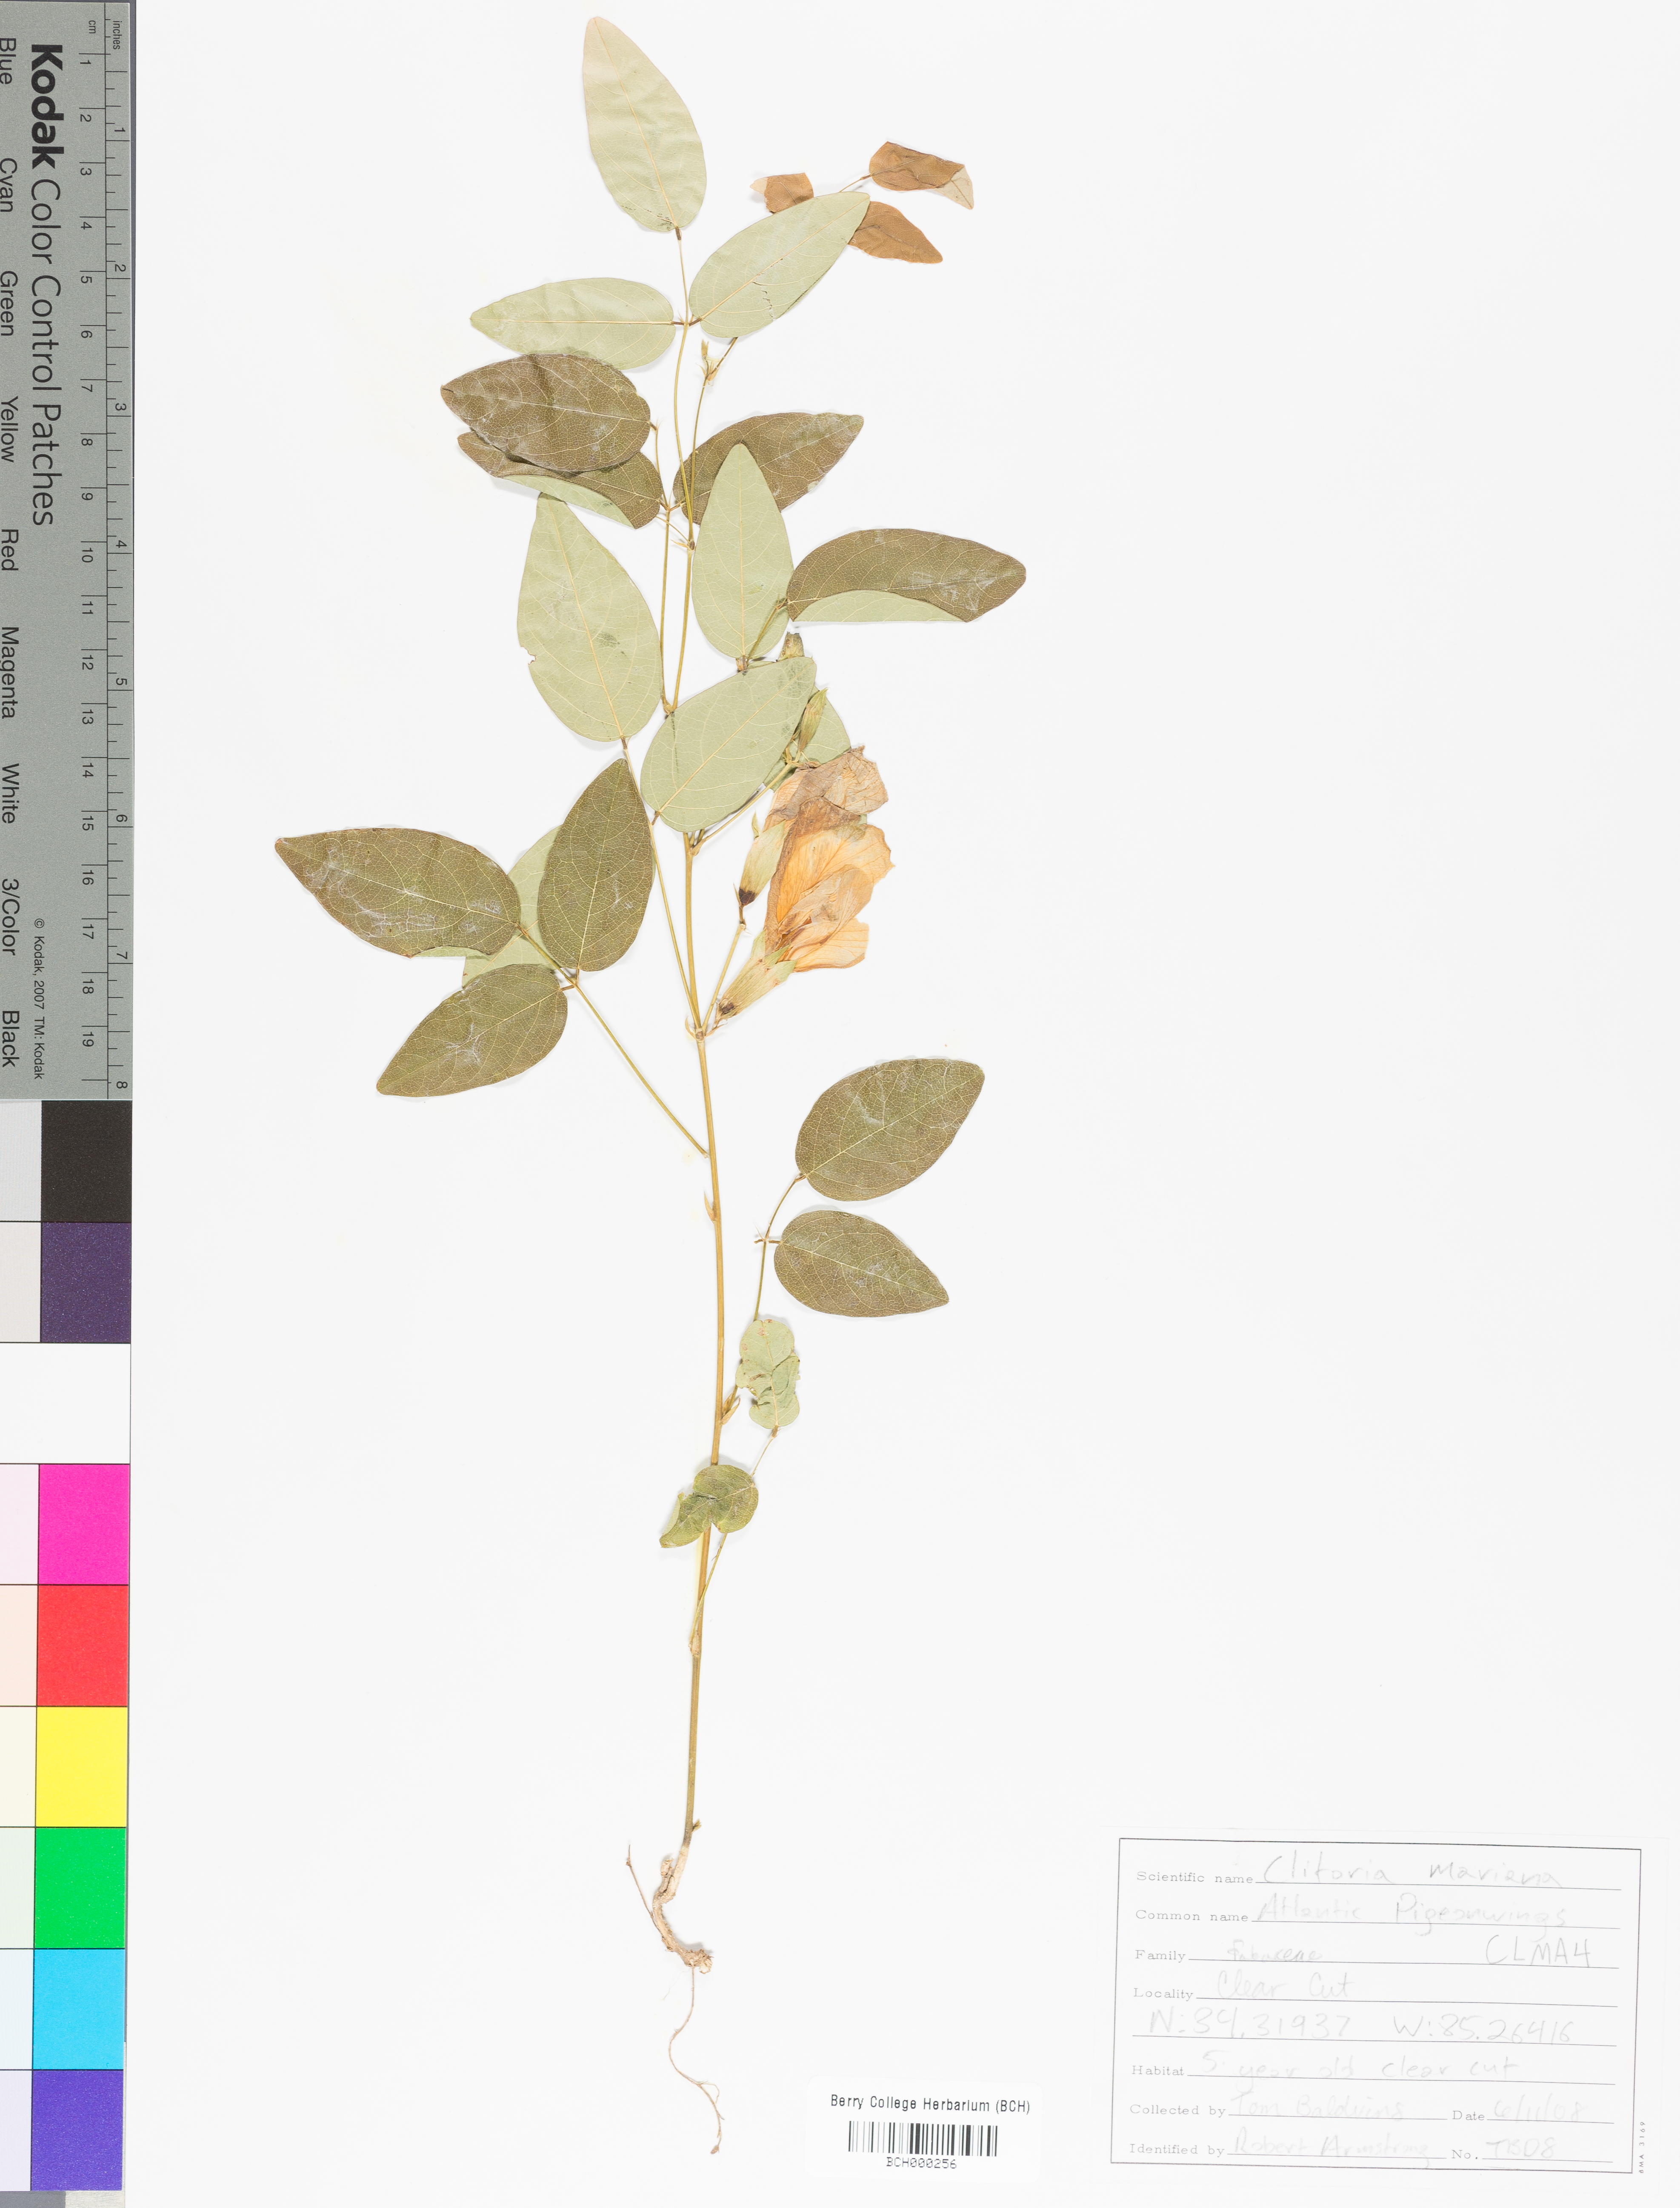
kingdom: Plantae
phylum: Tracheophyta
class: Magnoliopsida
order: Fabales
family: Fabaceae
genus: Clitoria
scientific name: Clitoria mariana
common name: Butterfly-pea
